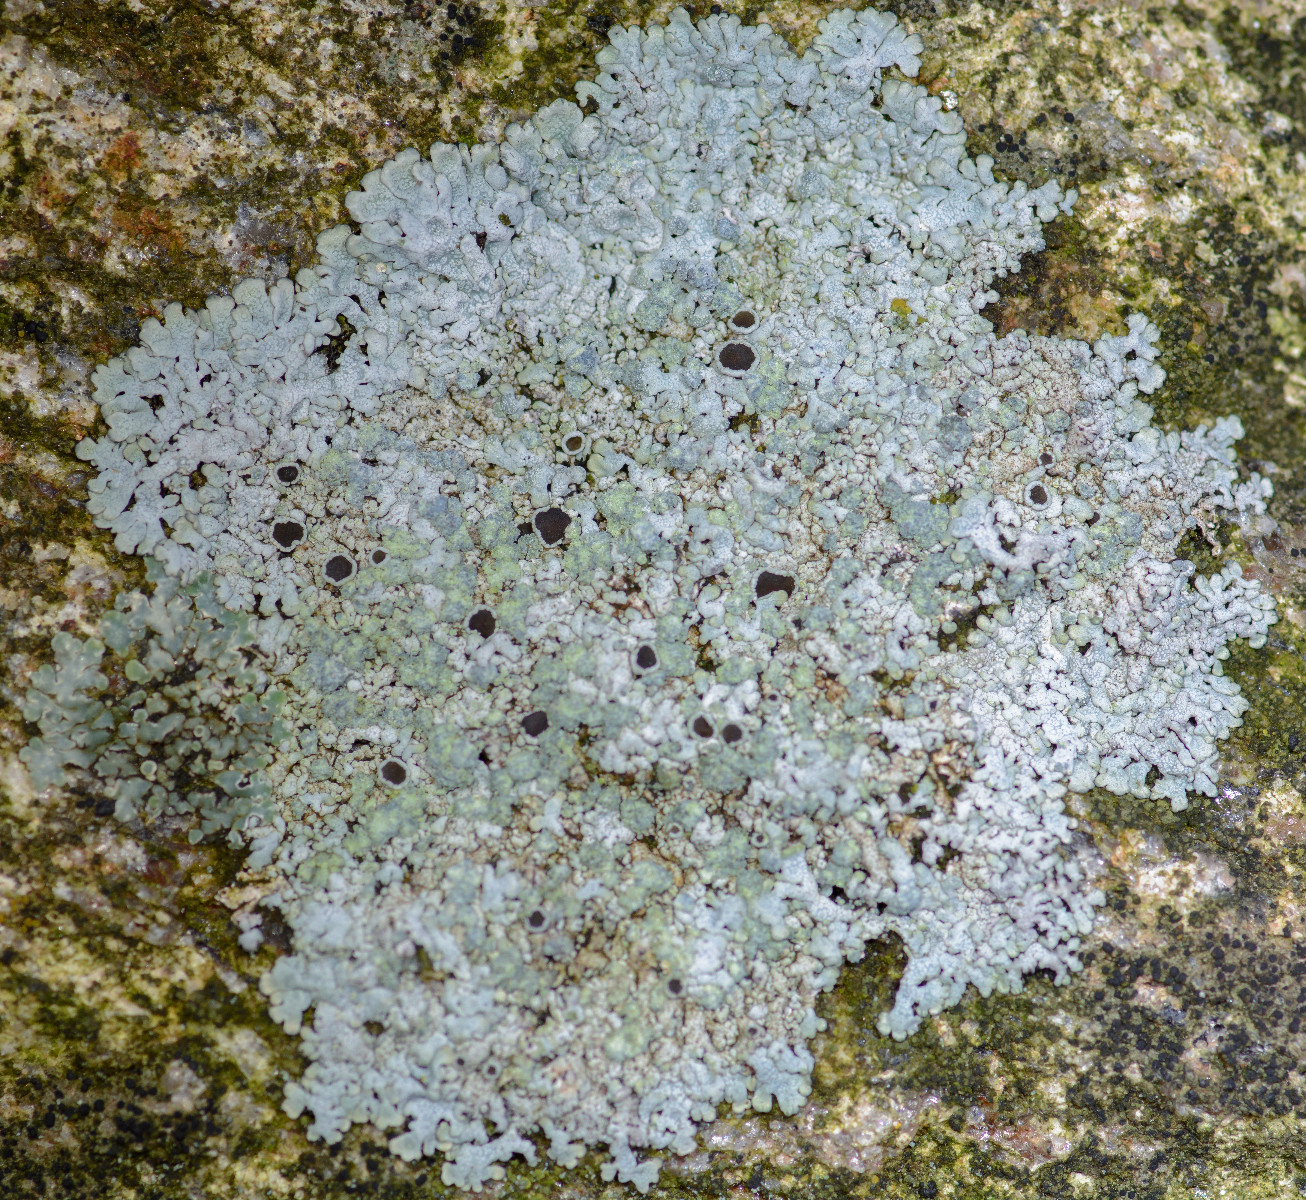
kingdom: Fungi
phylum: Ascomycota
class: Lecanoromycetes
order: Caliciales
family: Physciaceae
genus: Physcia
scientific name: Physcia caesia
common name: blågrå rosetlav
